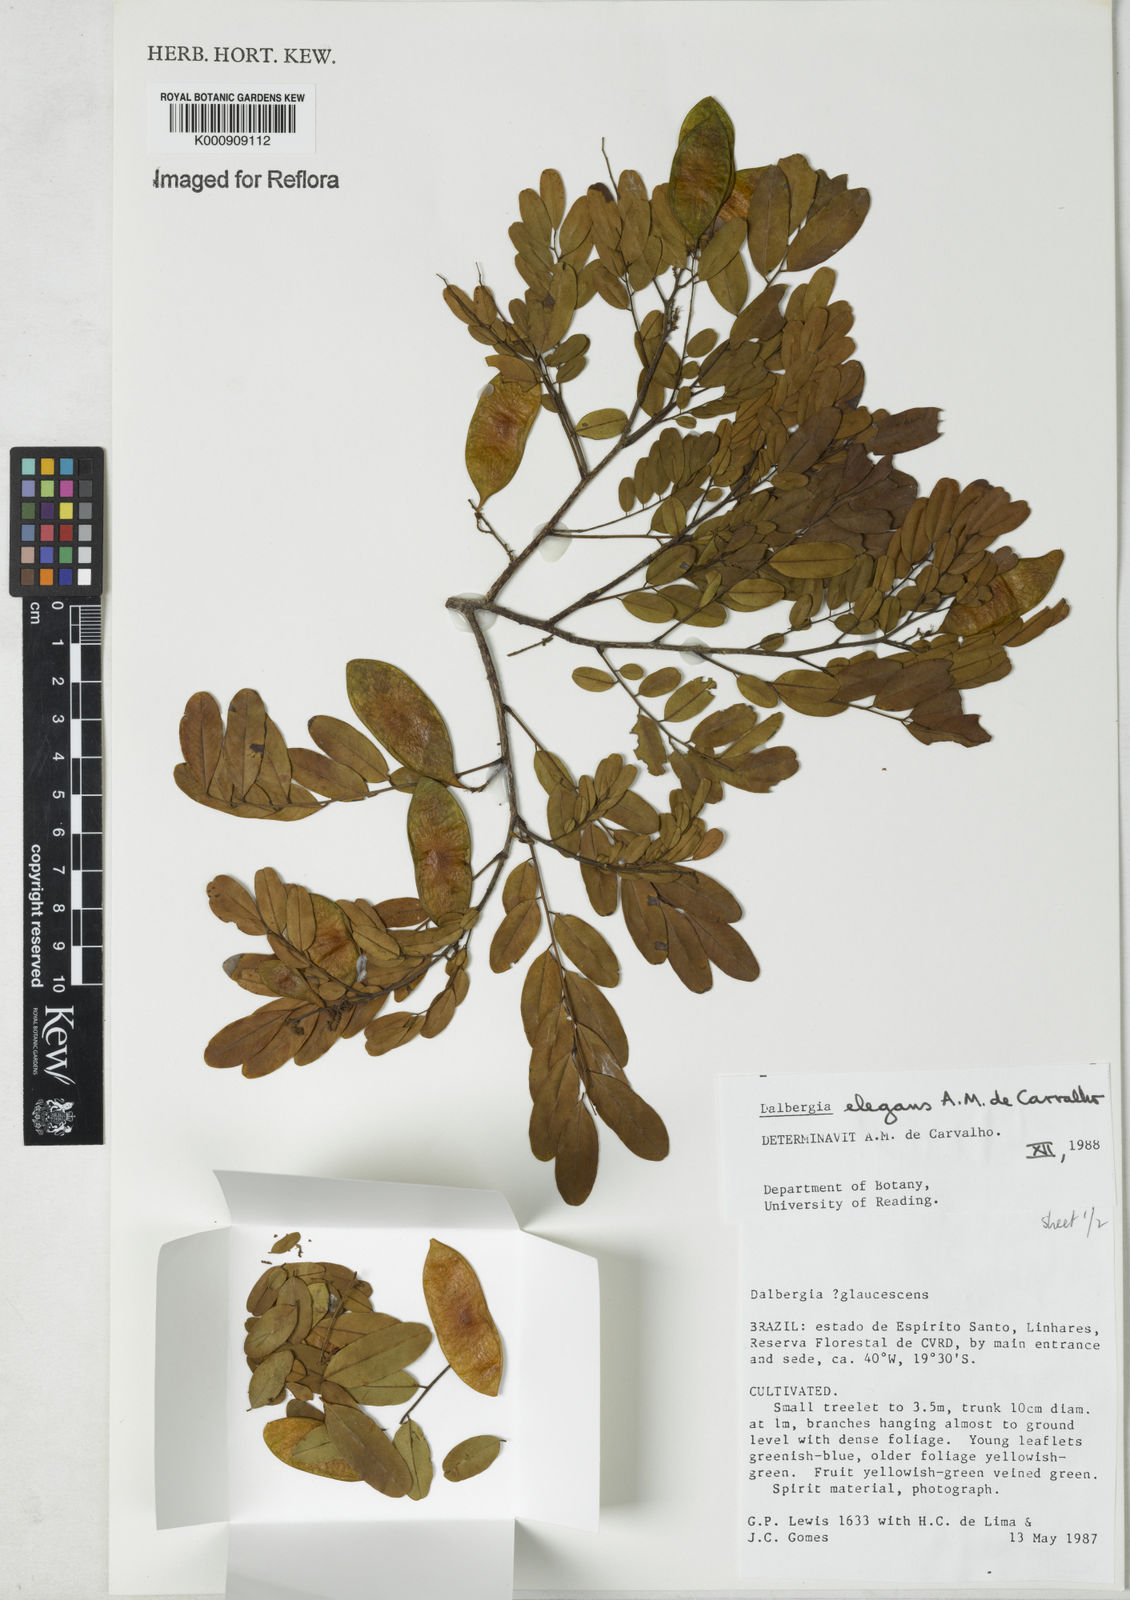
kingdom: Plantae
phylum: Tracheophyta
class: Magnoliopsida
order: Fabales
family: Fabaceae
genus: Dalbergia
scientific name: Dalbergia elegans
